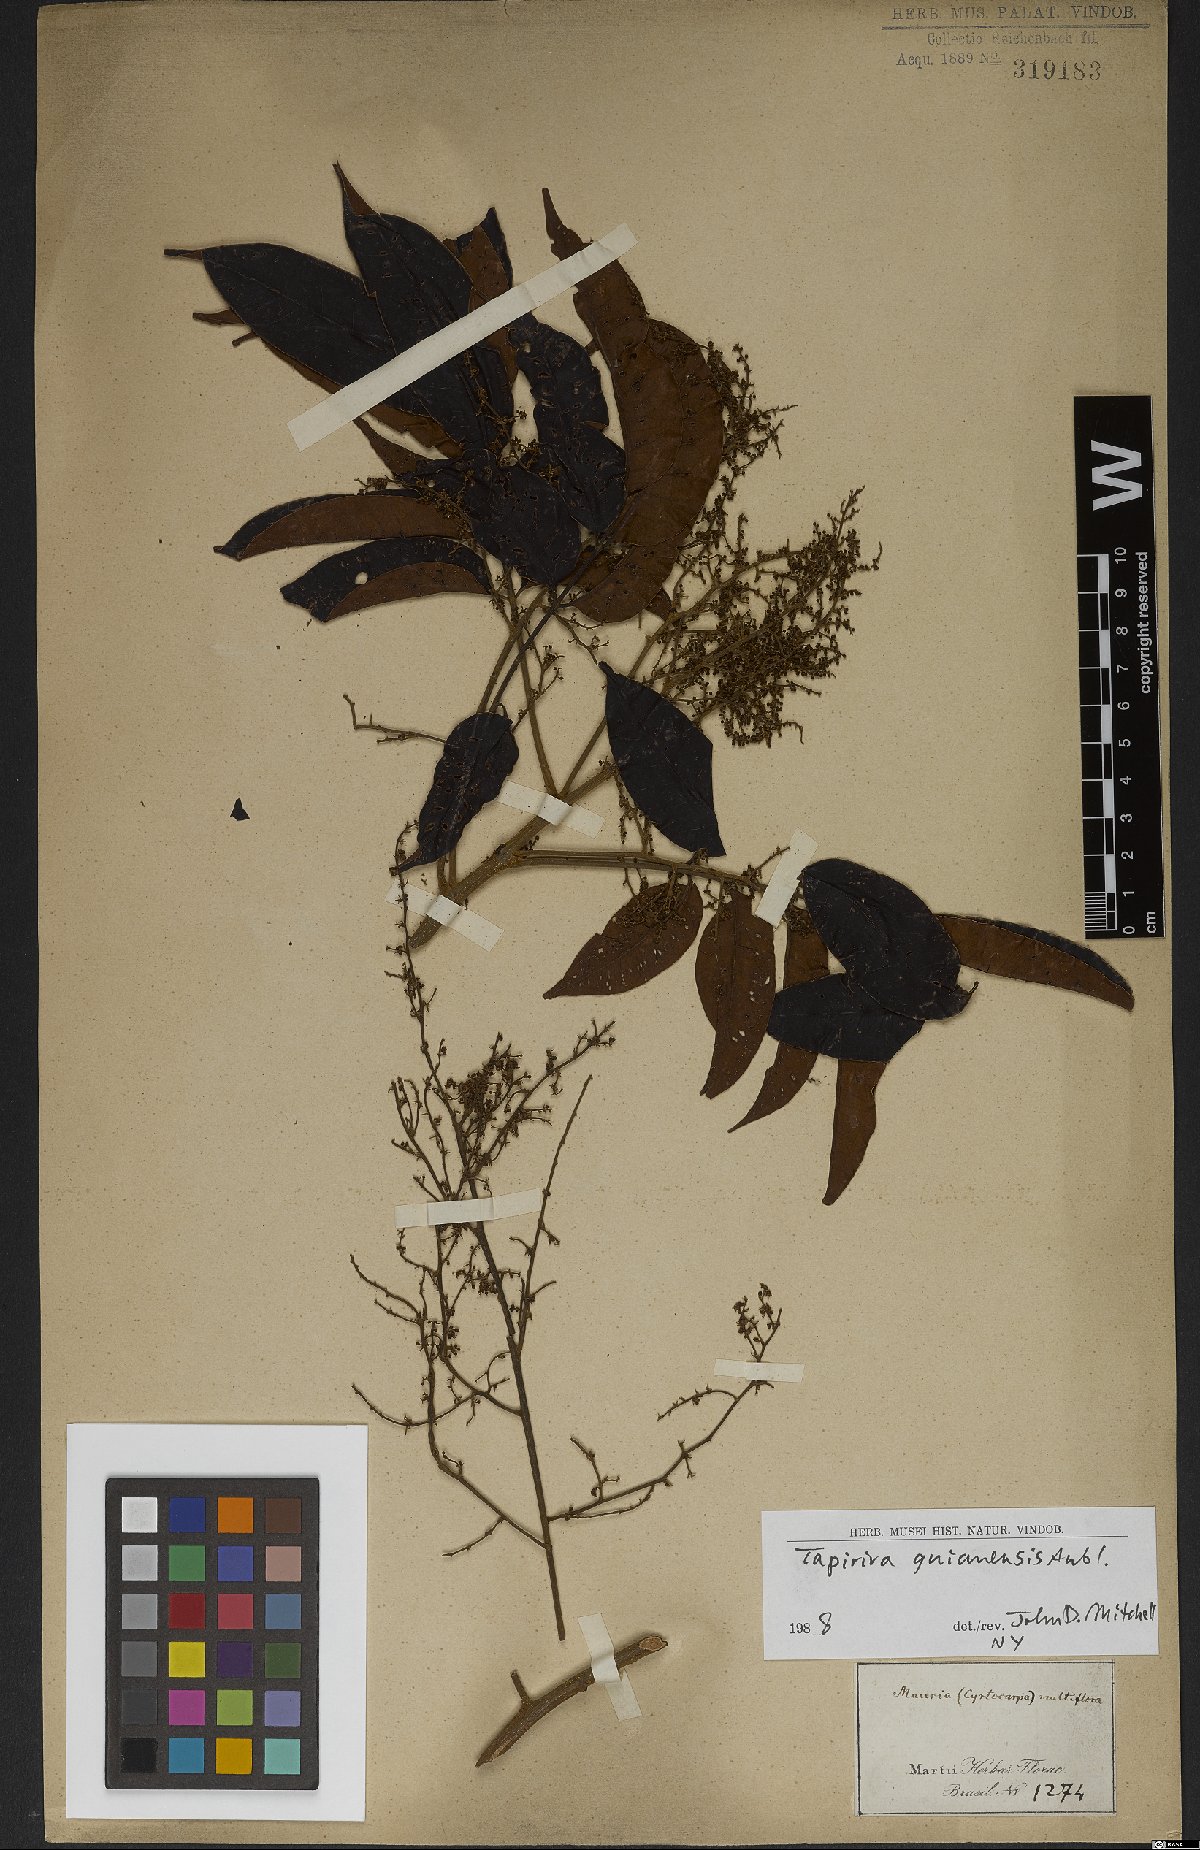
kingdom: Plantae
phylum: Tracheophyta
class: Magnoliopsida
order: Sapindales
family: Anacardiaceae
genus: Tapirira
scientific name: Tapirira guianensis
